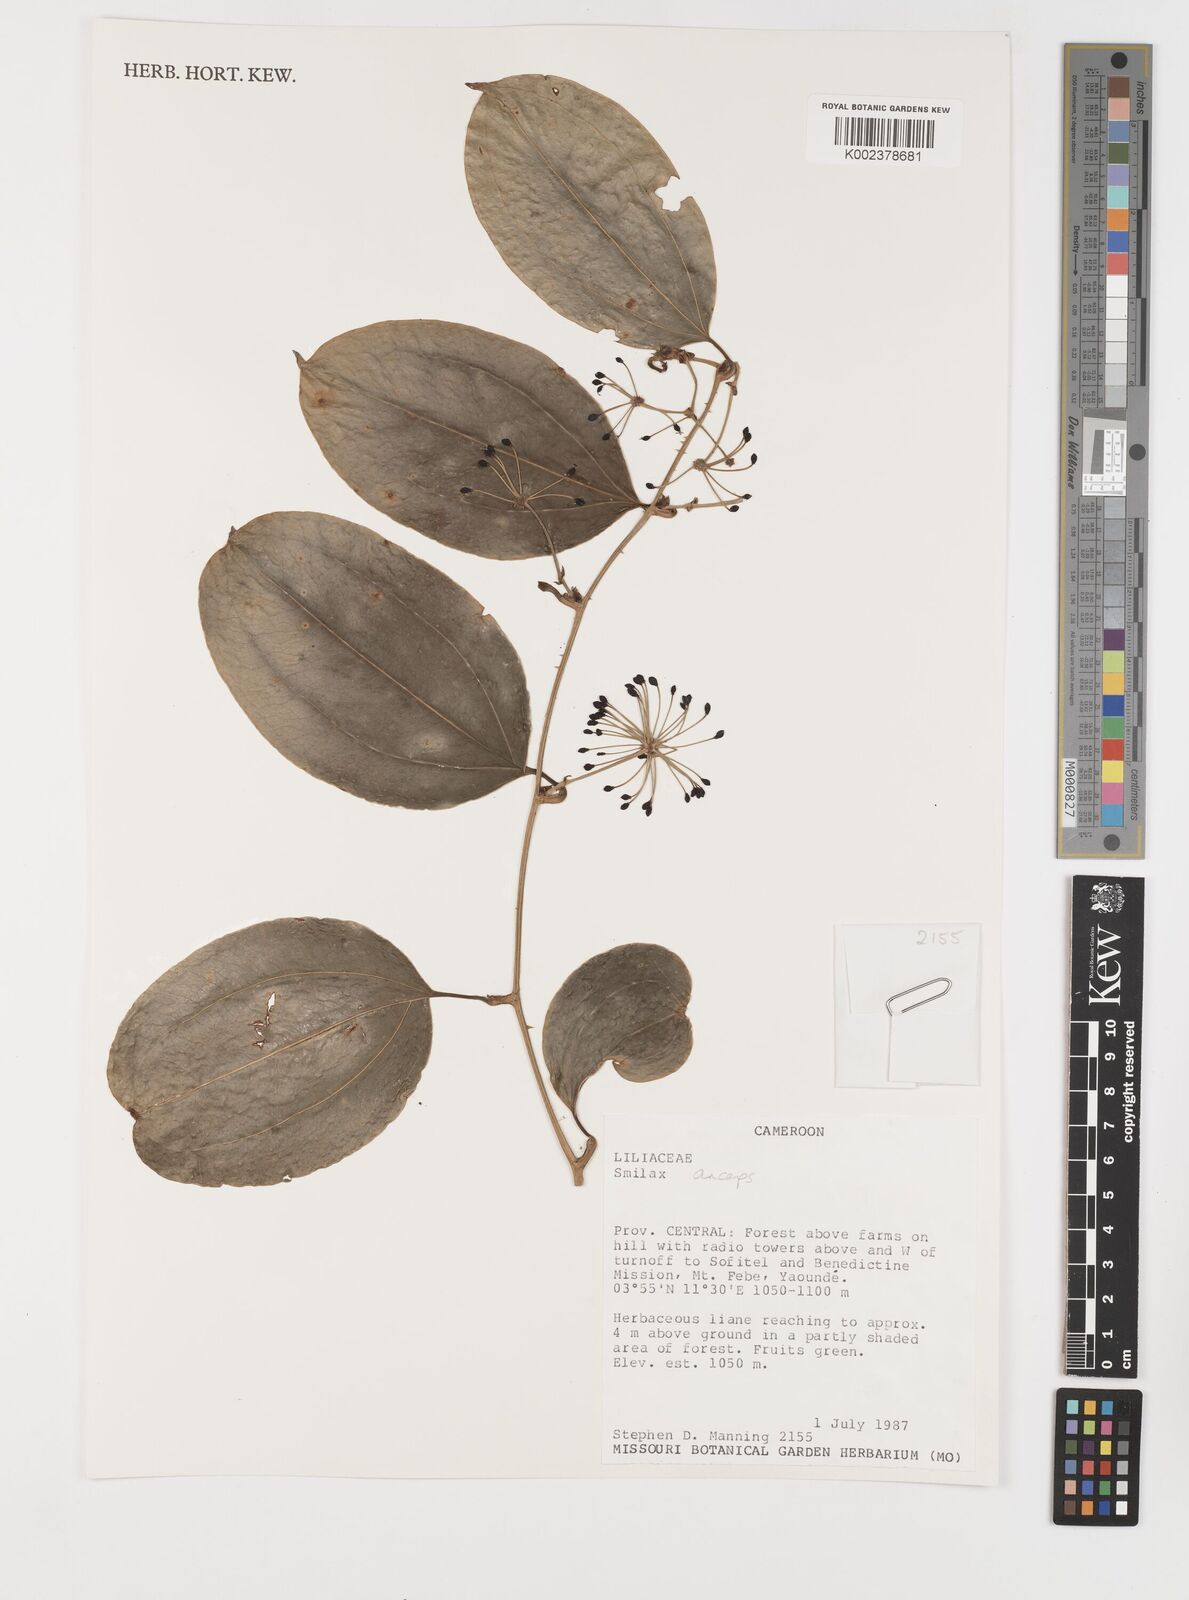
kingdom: Plantae
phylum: Tracheophyta
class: Liliopsida
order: Liliales
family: Smilacaceae
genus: Smilax
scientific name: Smilax anceps
